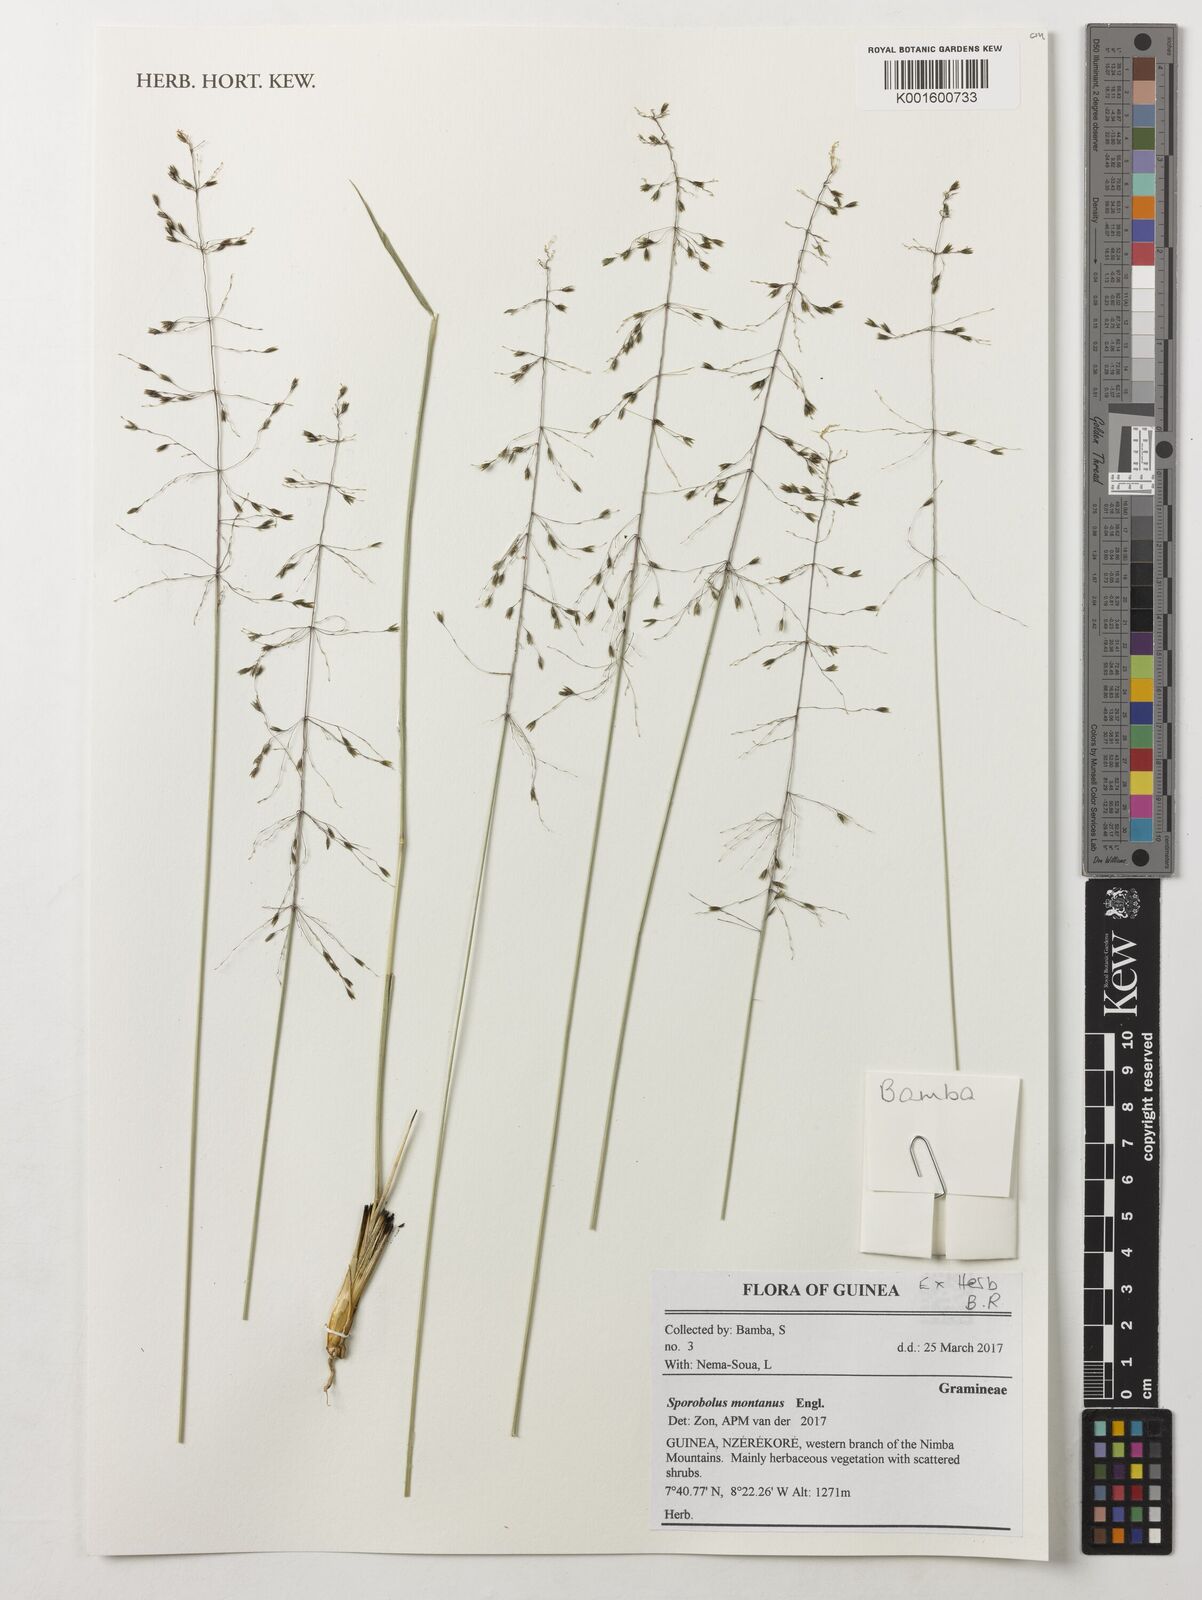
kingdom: Plantae
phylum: Tracheophyta
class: Liliopsida
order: Poales
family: Poaceae
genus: Sporobolus
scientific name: Sporobolus montanus
